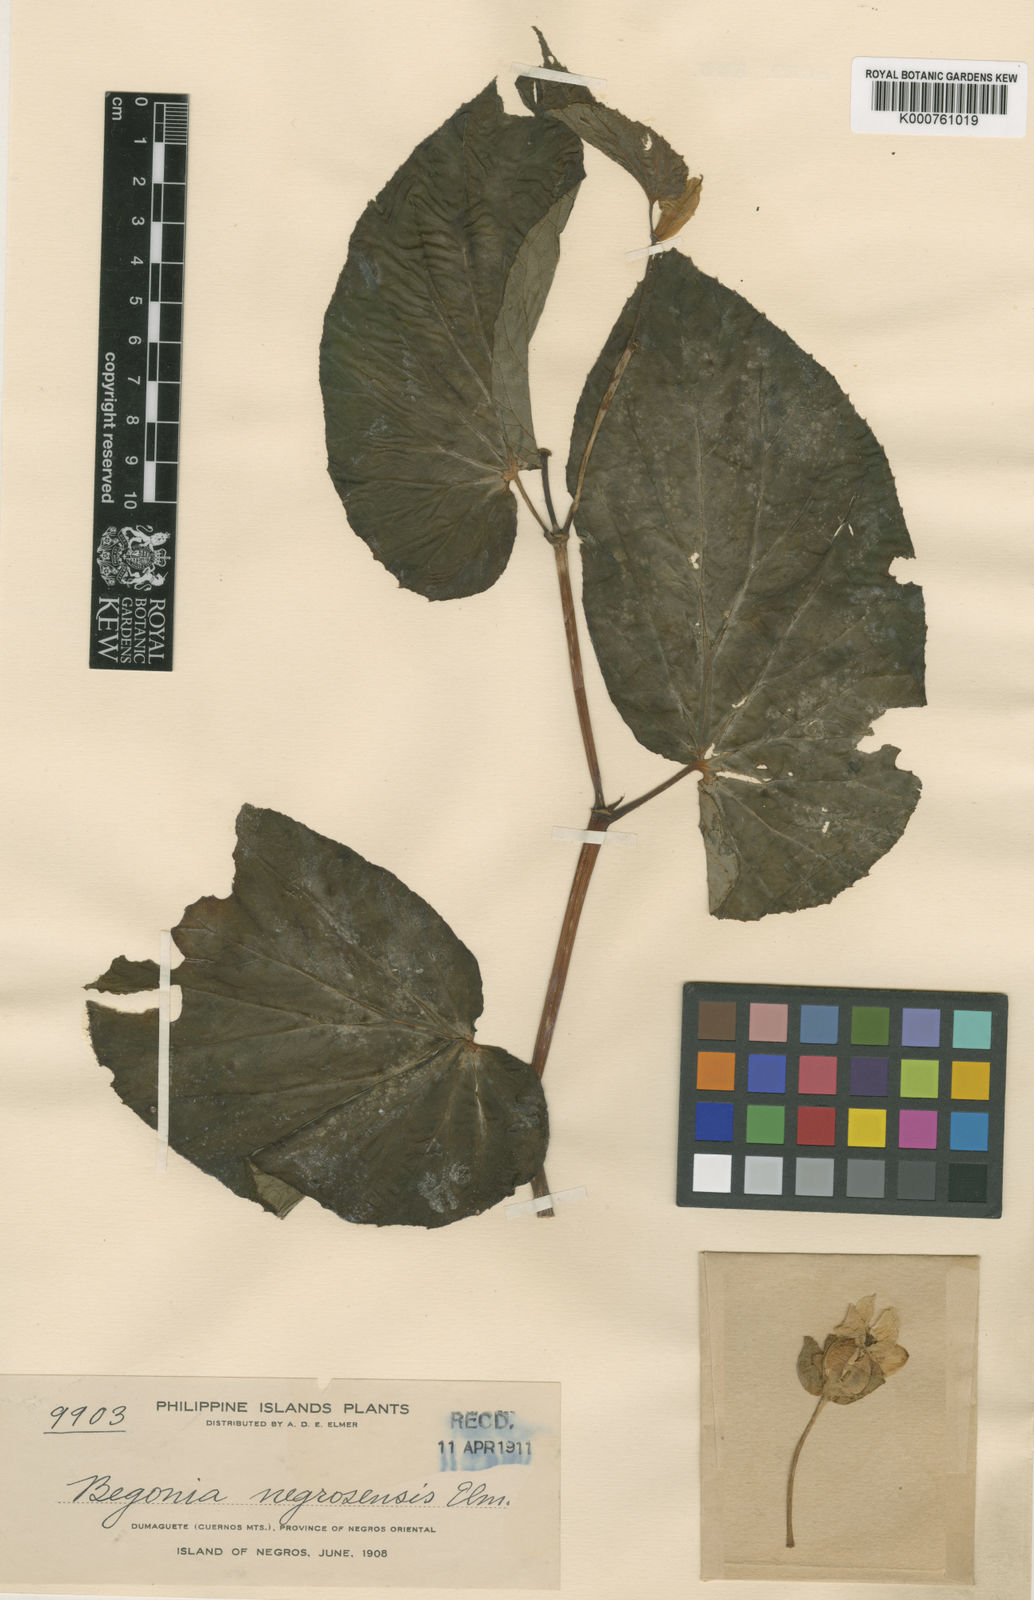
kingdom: Plantae
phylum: Tracheophyta
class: Magnoliopsida
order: Cucurbitales
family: Begoniaceae
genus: Begonia
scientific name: Begonia negrosensis
